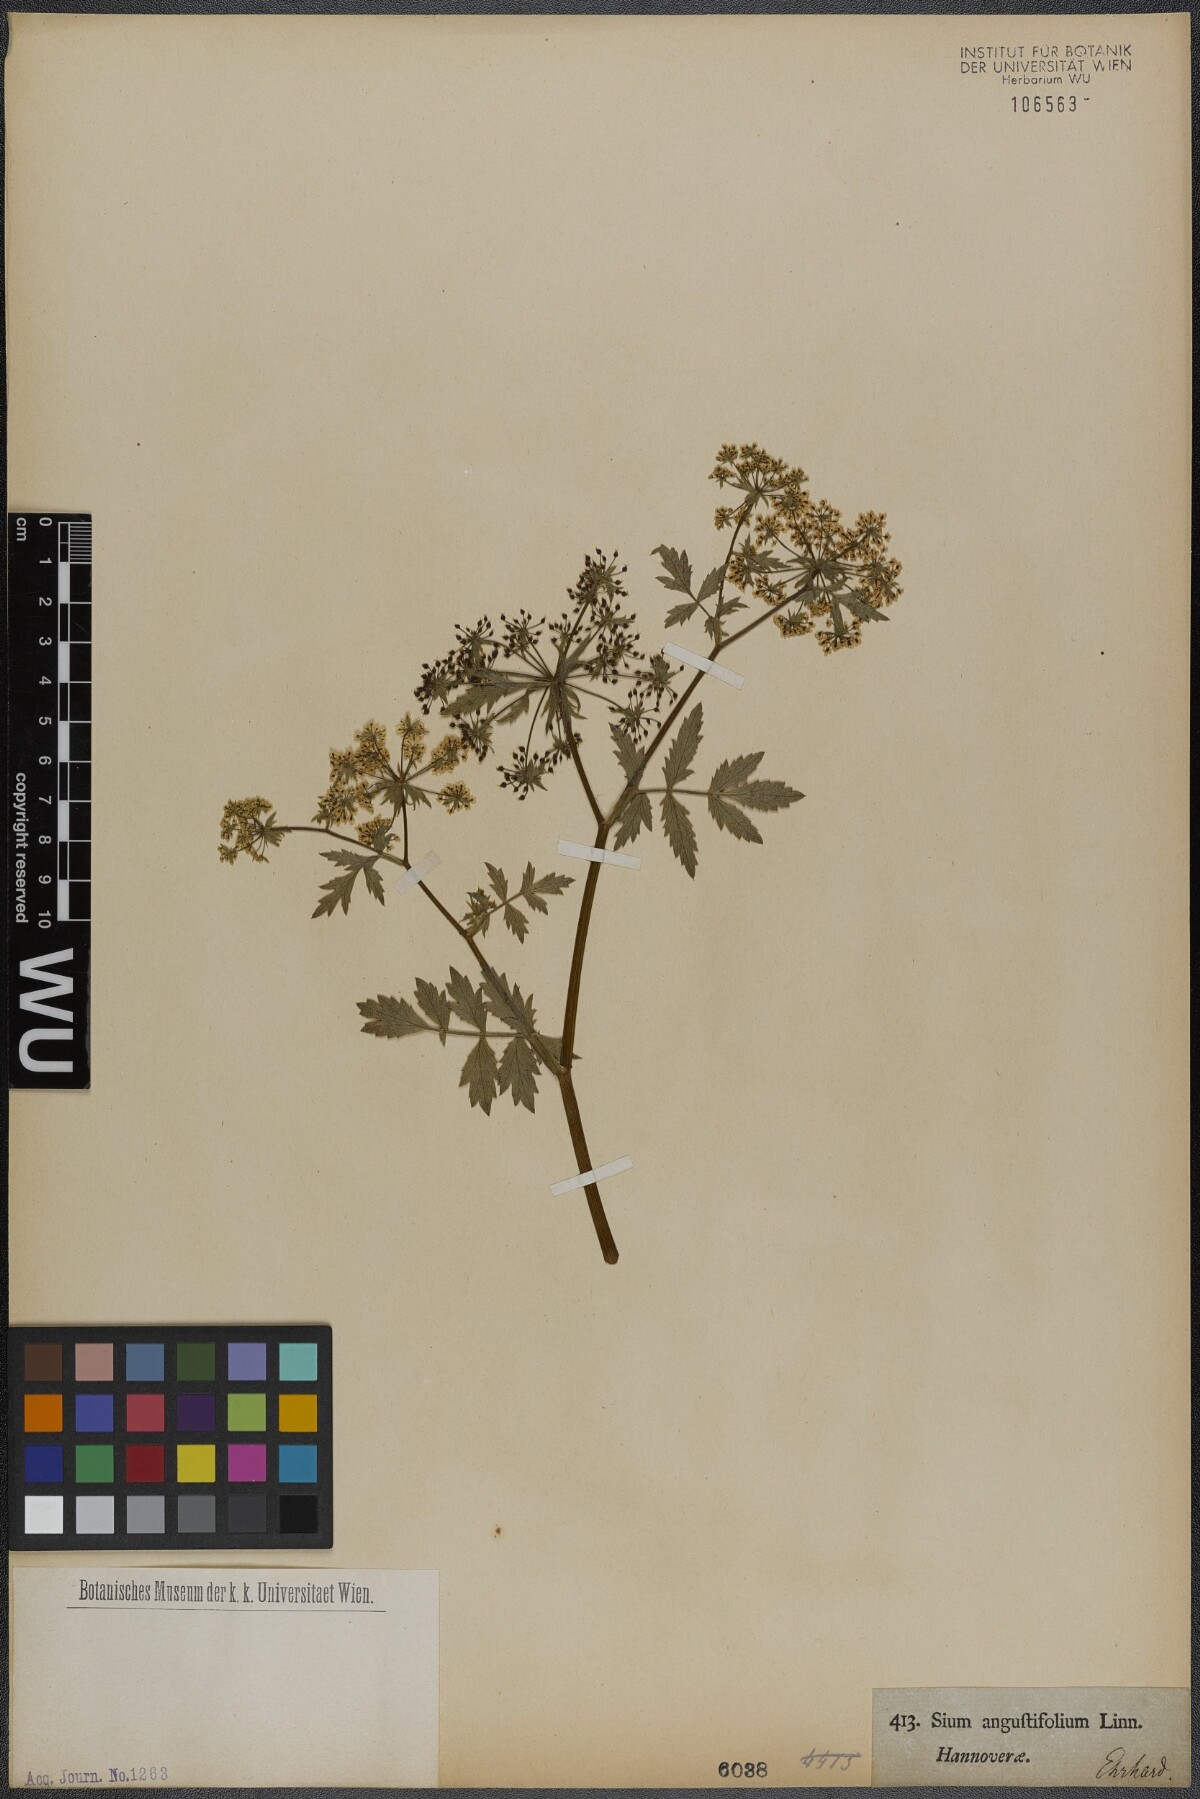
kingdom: Plantae
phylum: Tracheophyta
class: Magnoliopsida
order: Apiales
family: Apiaceae
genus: Berula
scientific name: Berula erecta
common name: Lesser water-parsnip
